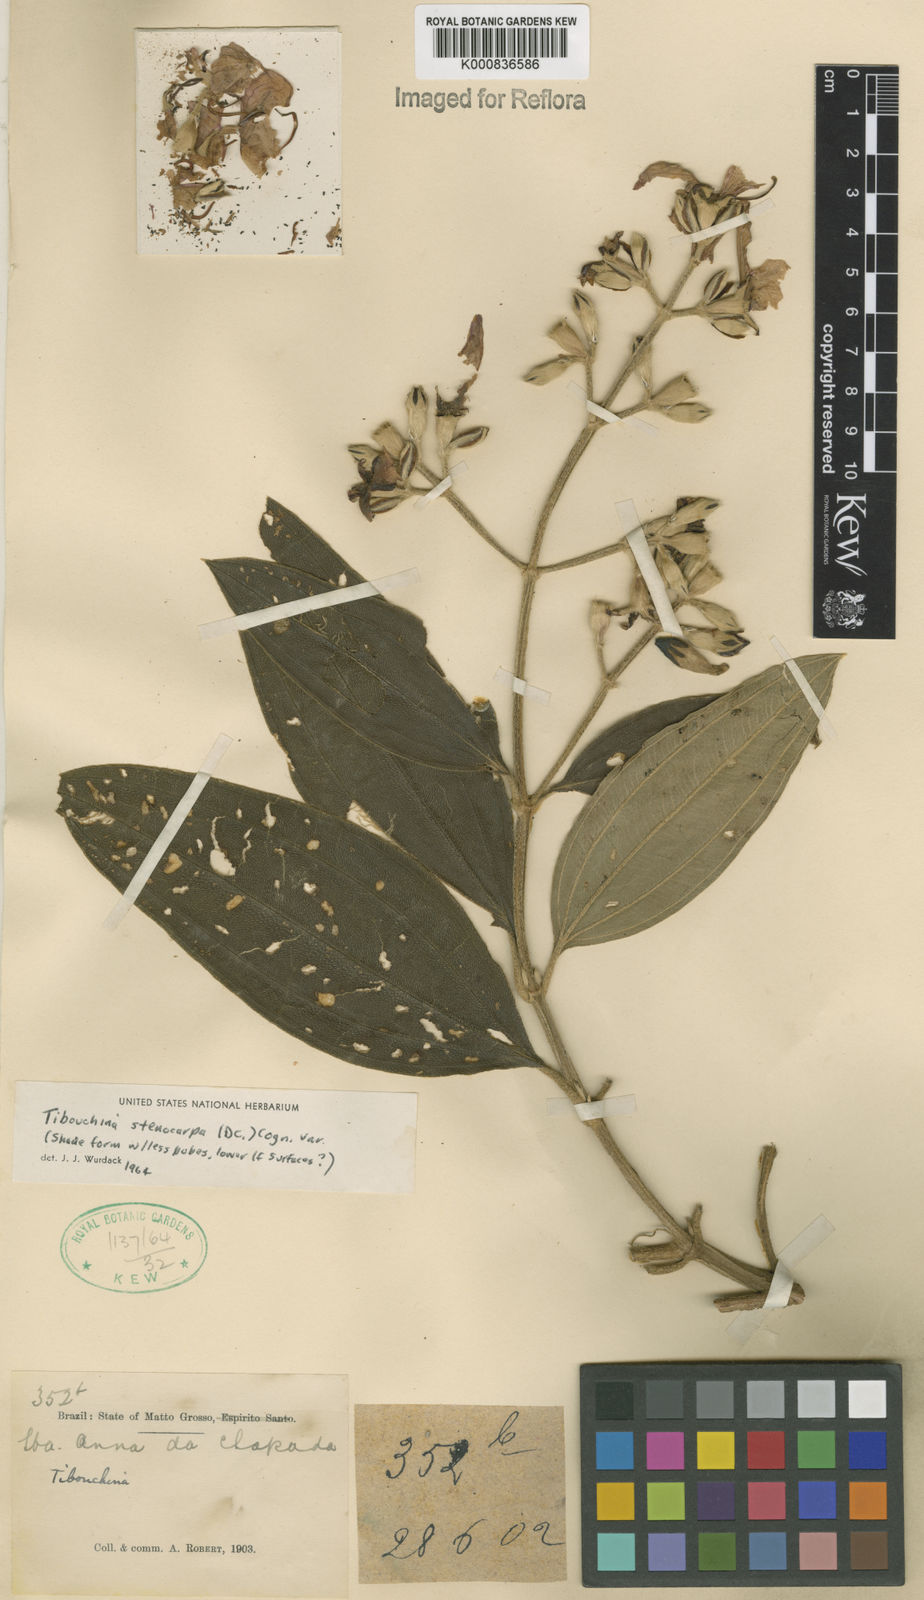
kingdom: Plantae
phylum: Tracheophyta
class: Magnoliopsida
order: Myrtales
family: Melastomataceae
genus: Pleroma
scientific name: Pleroma stenocarpum
